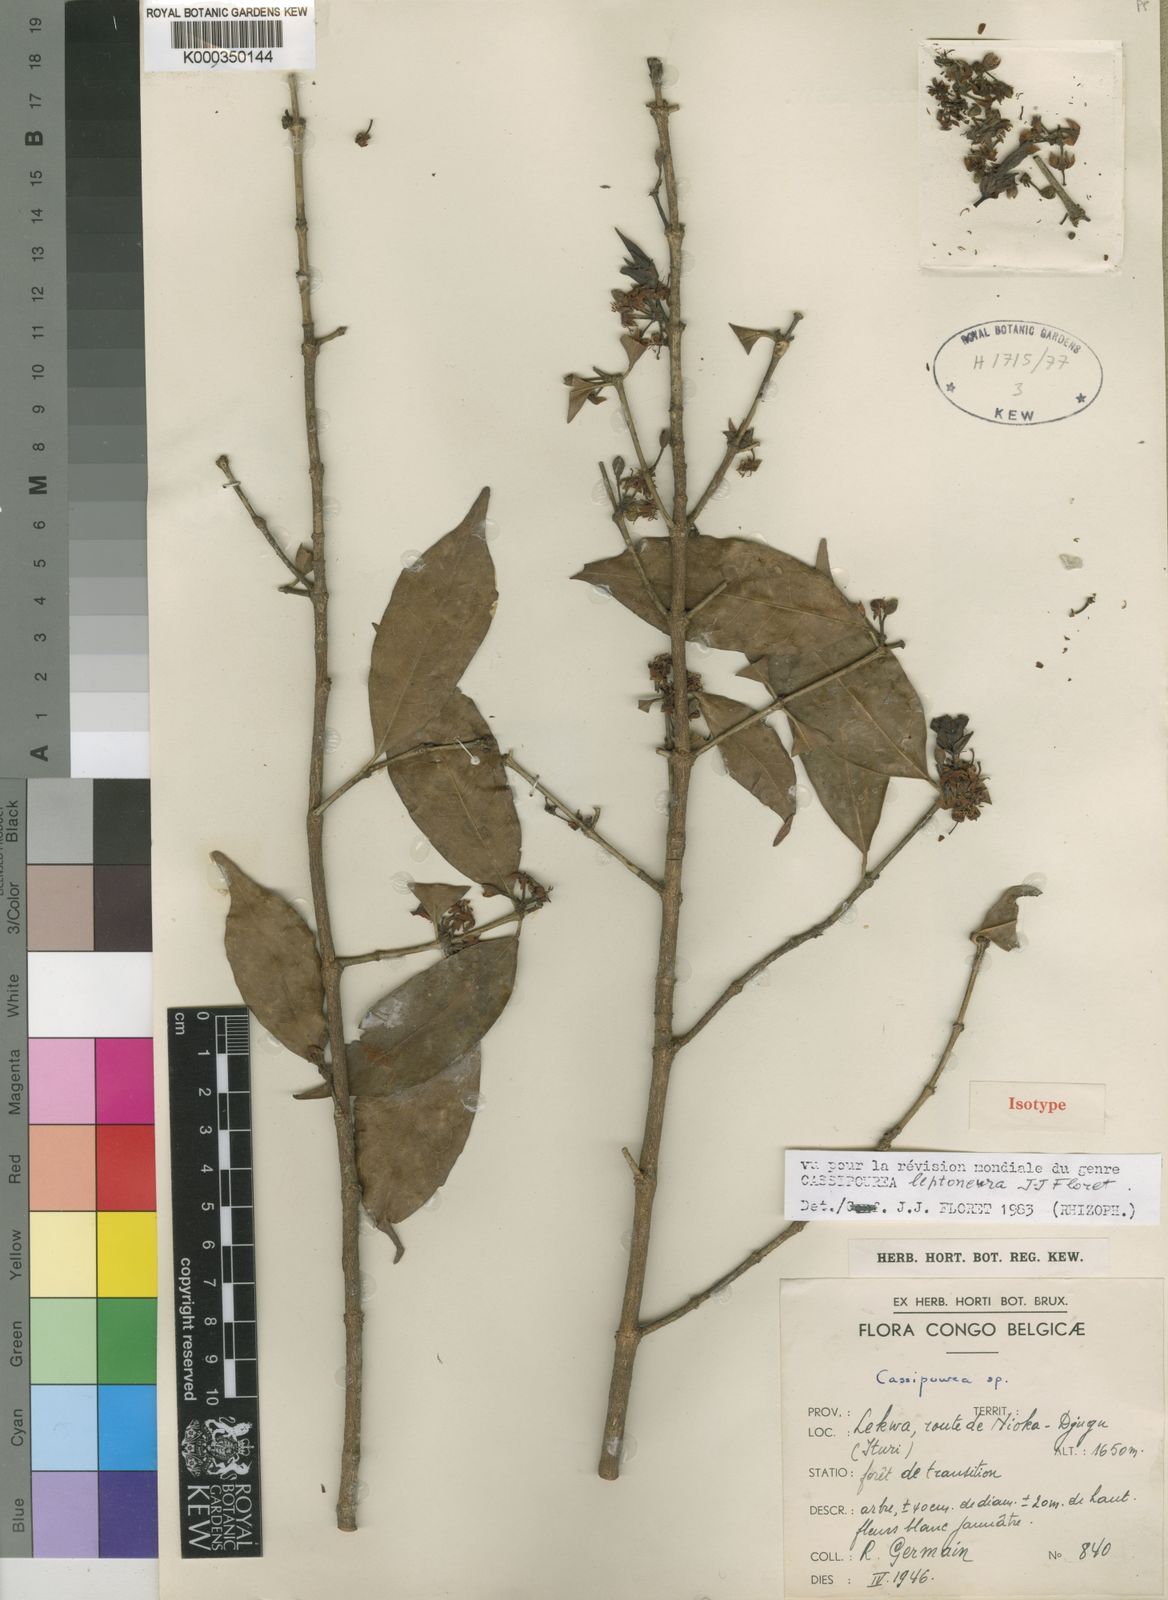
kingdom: Plantae
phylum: Tracheophyta
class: Magnoliopsida
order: Malpighiales
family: Rhizophoraceae
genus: Cassipourea
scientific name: Cassipourea leptoneura
